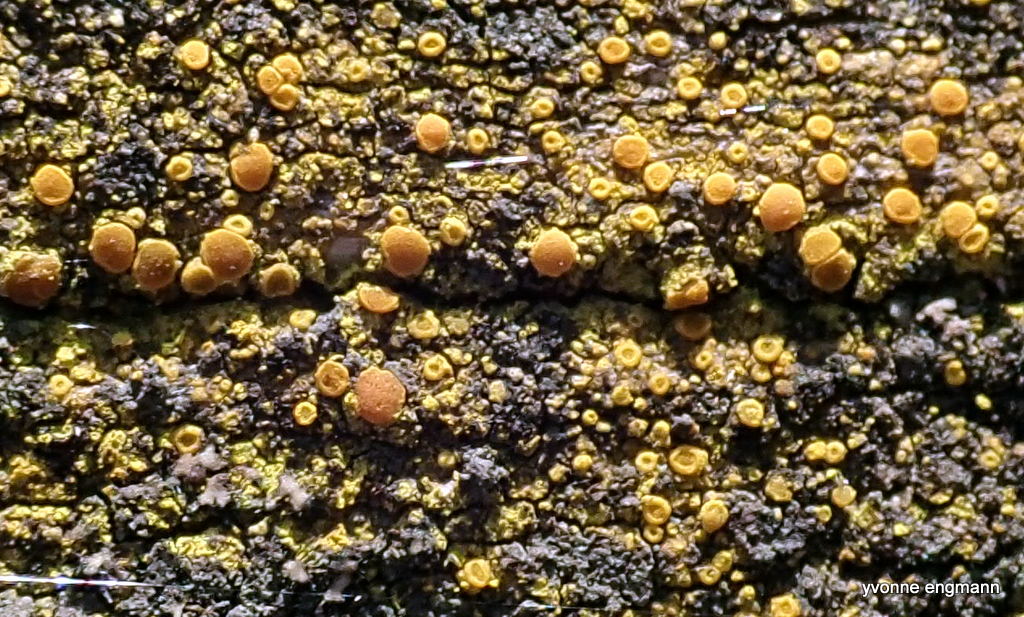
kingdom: Fungi
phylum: Ascomycota
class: Candelariomycetes
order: Candelariales
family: Candelariaceae
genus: Candelariella
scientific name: Candelariella vitellina
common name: almindelig æggeblommelav
